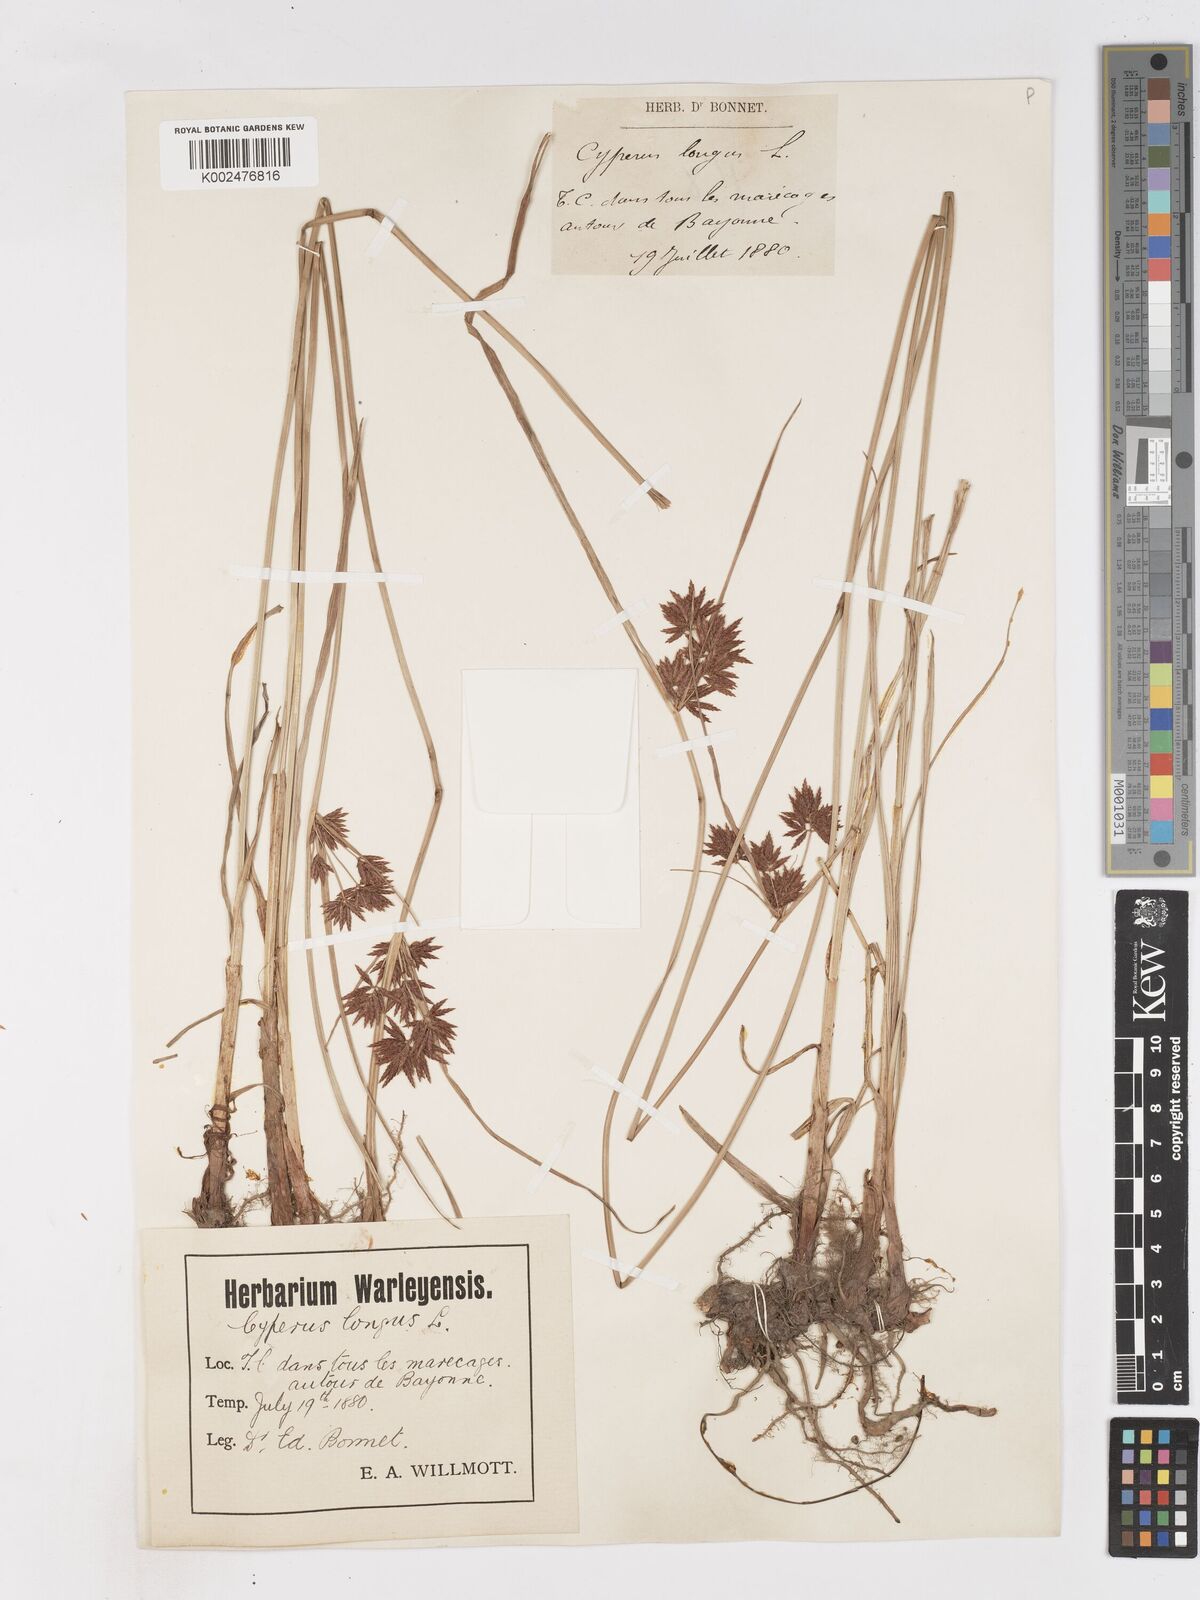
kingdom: Plantae
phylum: Tracheophyta
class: Liliopsida
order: Poales
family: Cyperaceae
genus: Cyperus
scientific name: Cyperus longus
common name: Galingale
